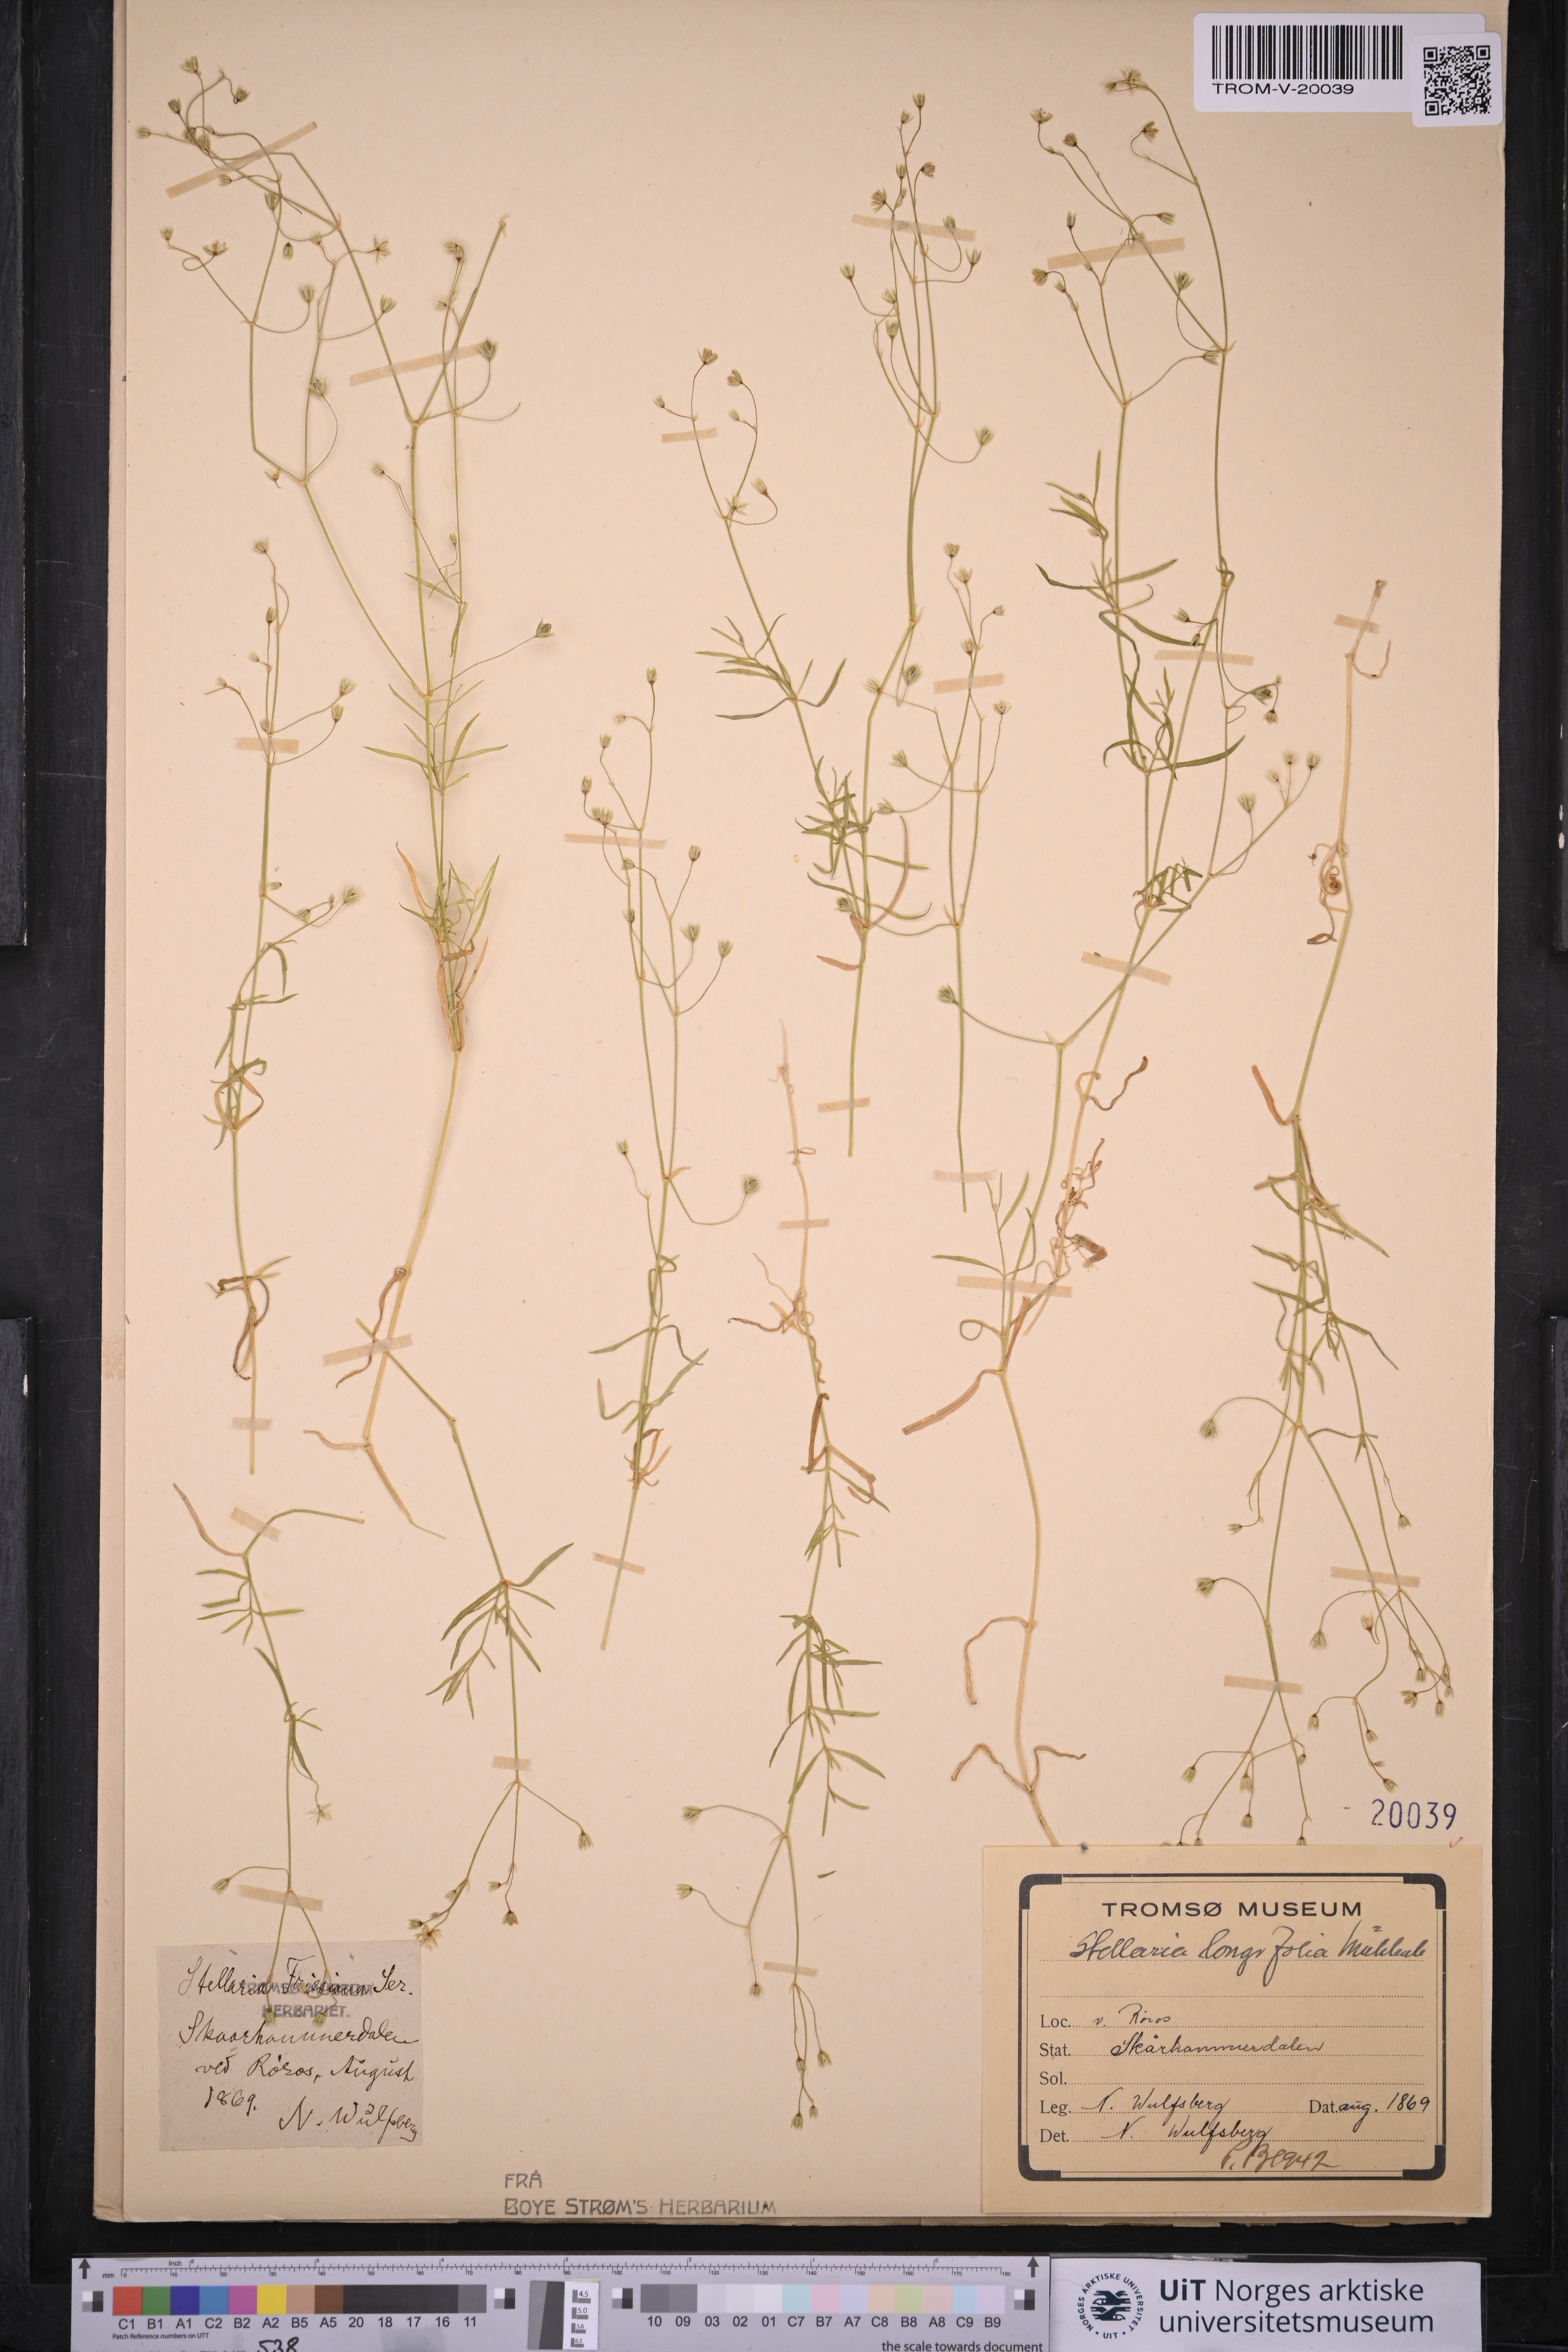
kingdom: Plantae
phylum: Tracheophyta
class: Magnoliopsida
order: Caryophyllales
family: Caryophyllaceae
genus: Stellaria
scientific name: Stellaria longifolia
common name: Long-leaved chickweed
